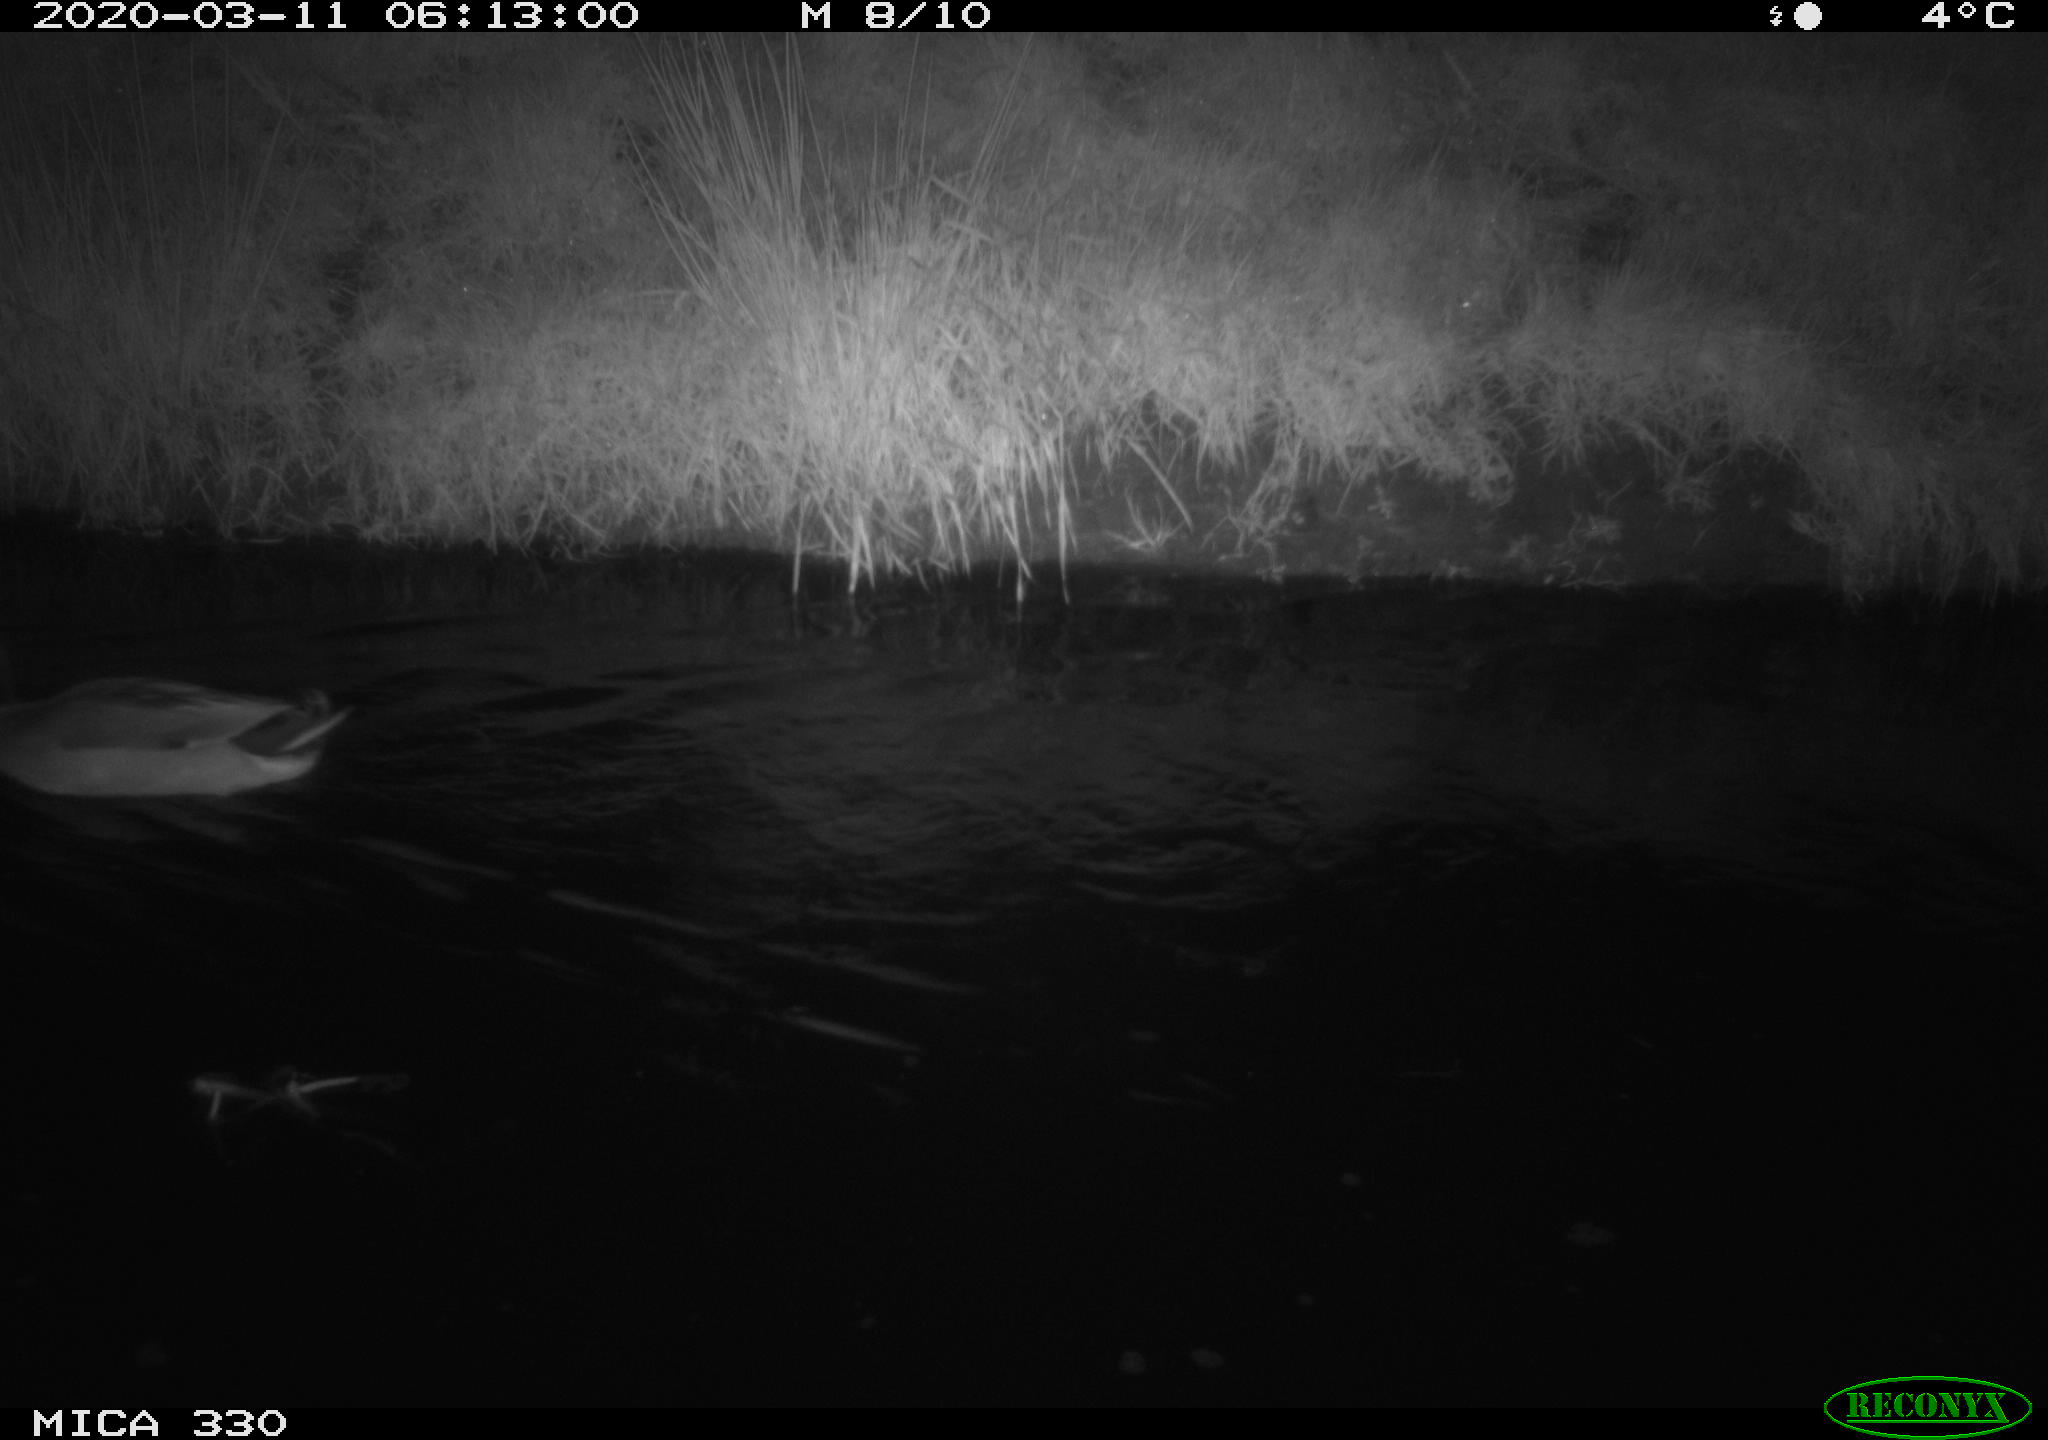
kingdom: Animalia
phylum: Chordata
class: Aves
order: Anseriformes
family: Anatidae
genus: Anas
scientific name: Anas platyrhynchos
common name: Mallard
